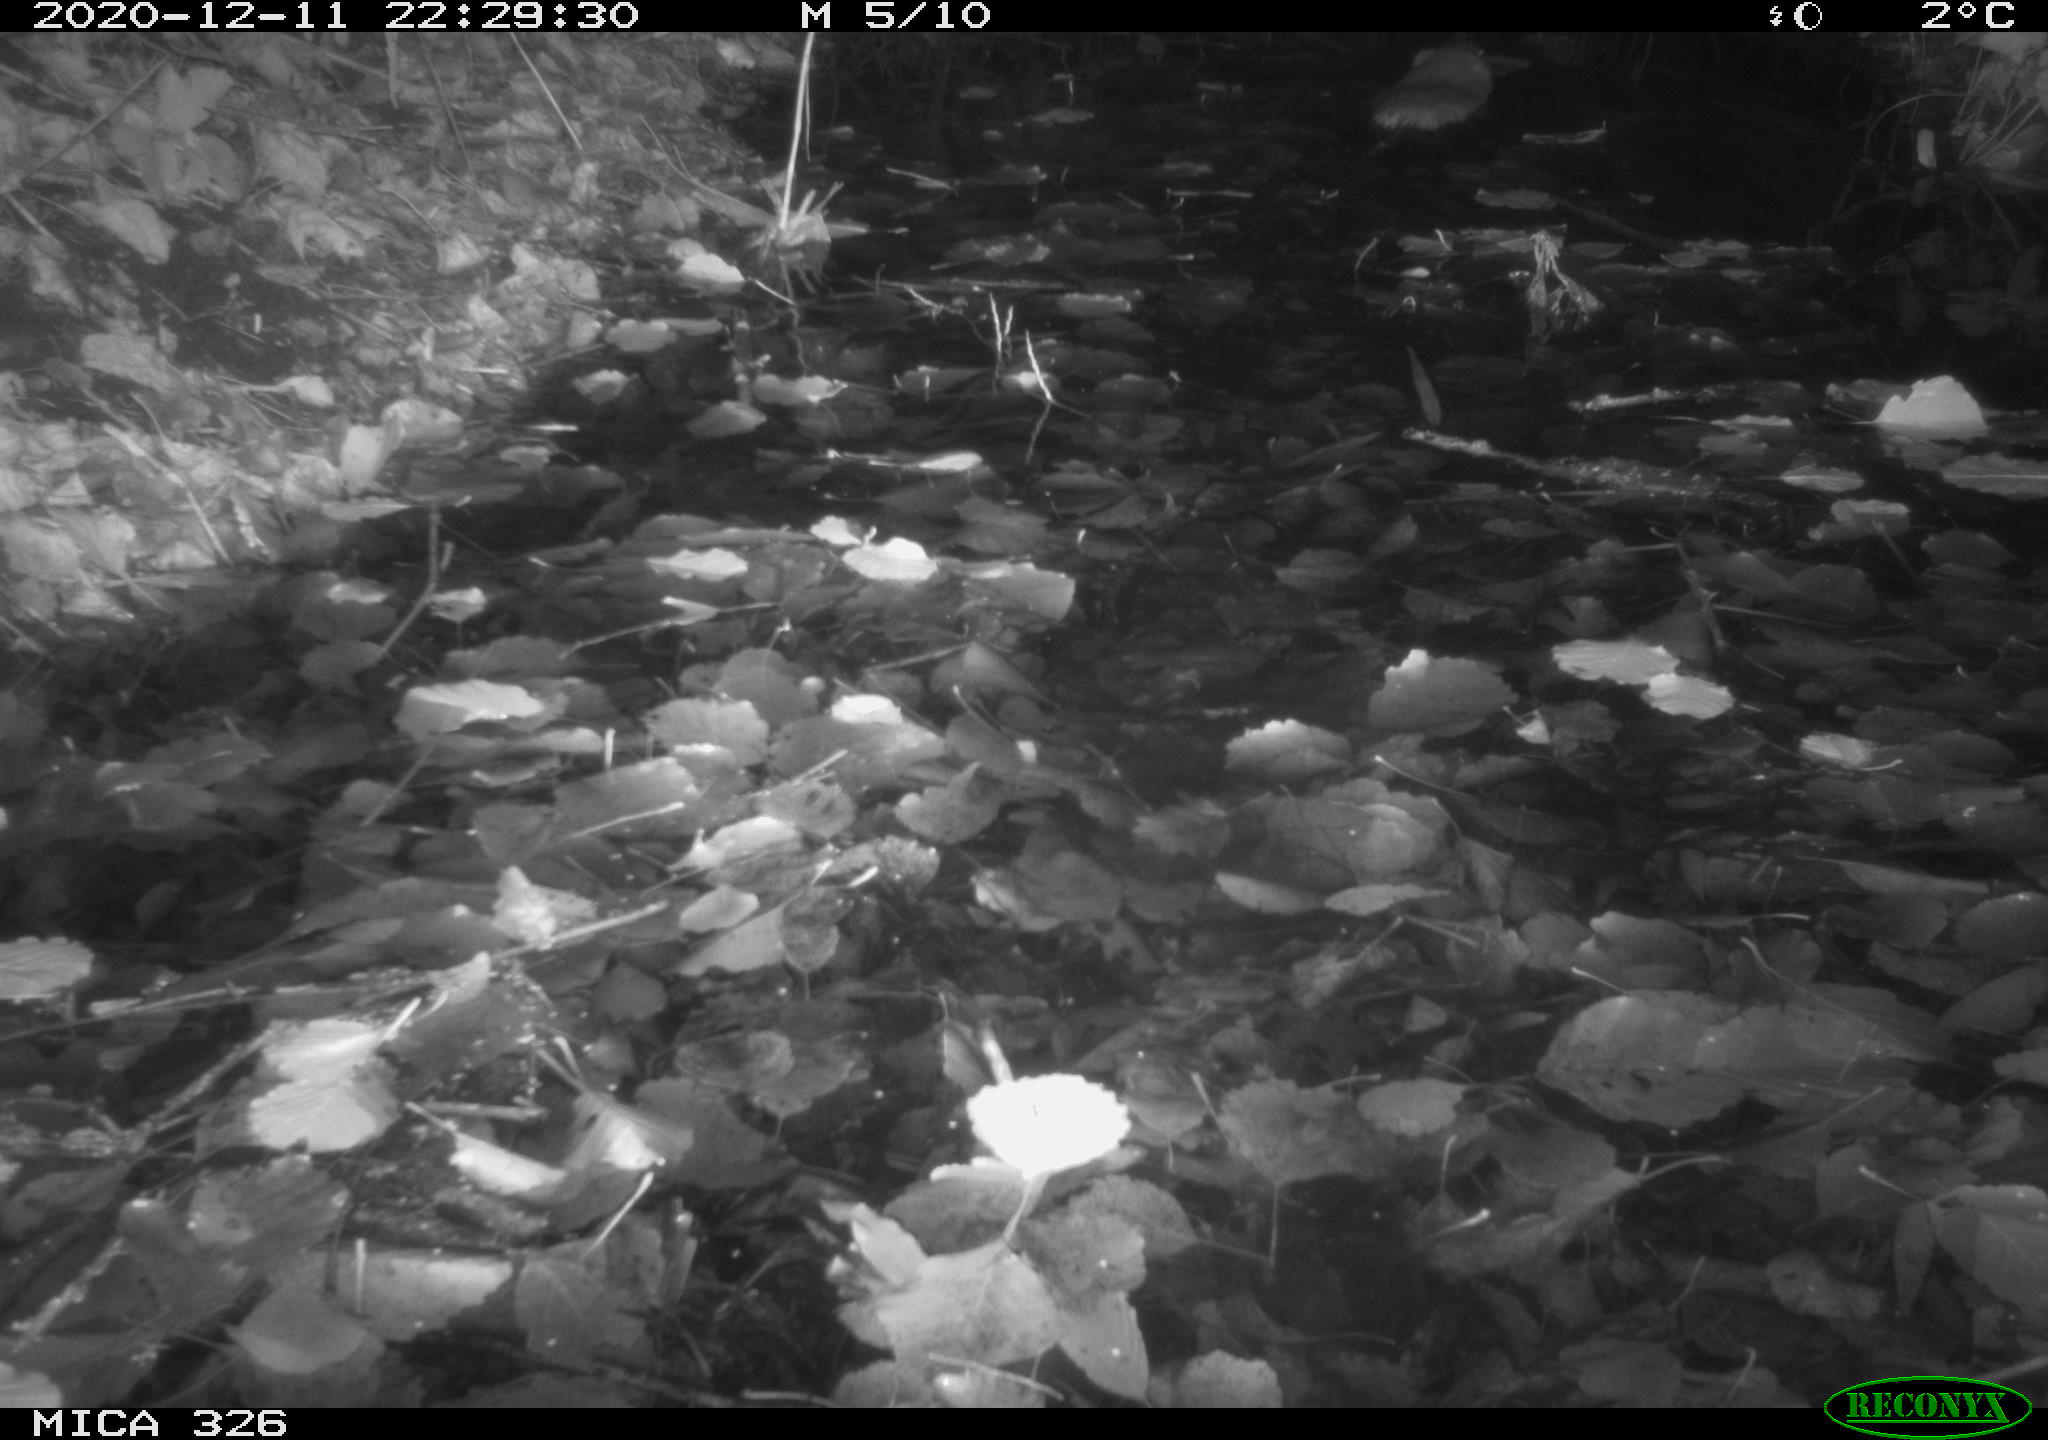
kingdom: Animalia
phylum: Chordata
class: Mammalia
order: Rodentia
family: Cricetidae
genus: Ondatra
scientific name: Ondatra zibethicus
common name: Muskrat
